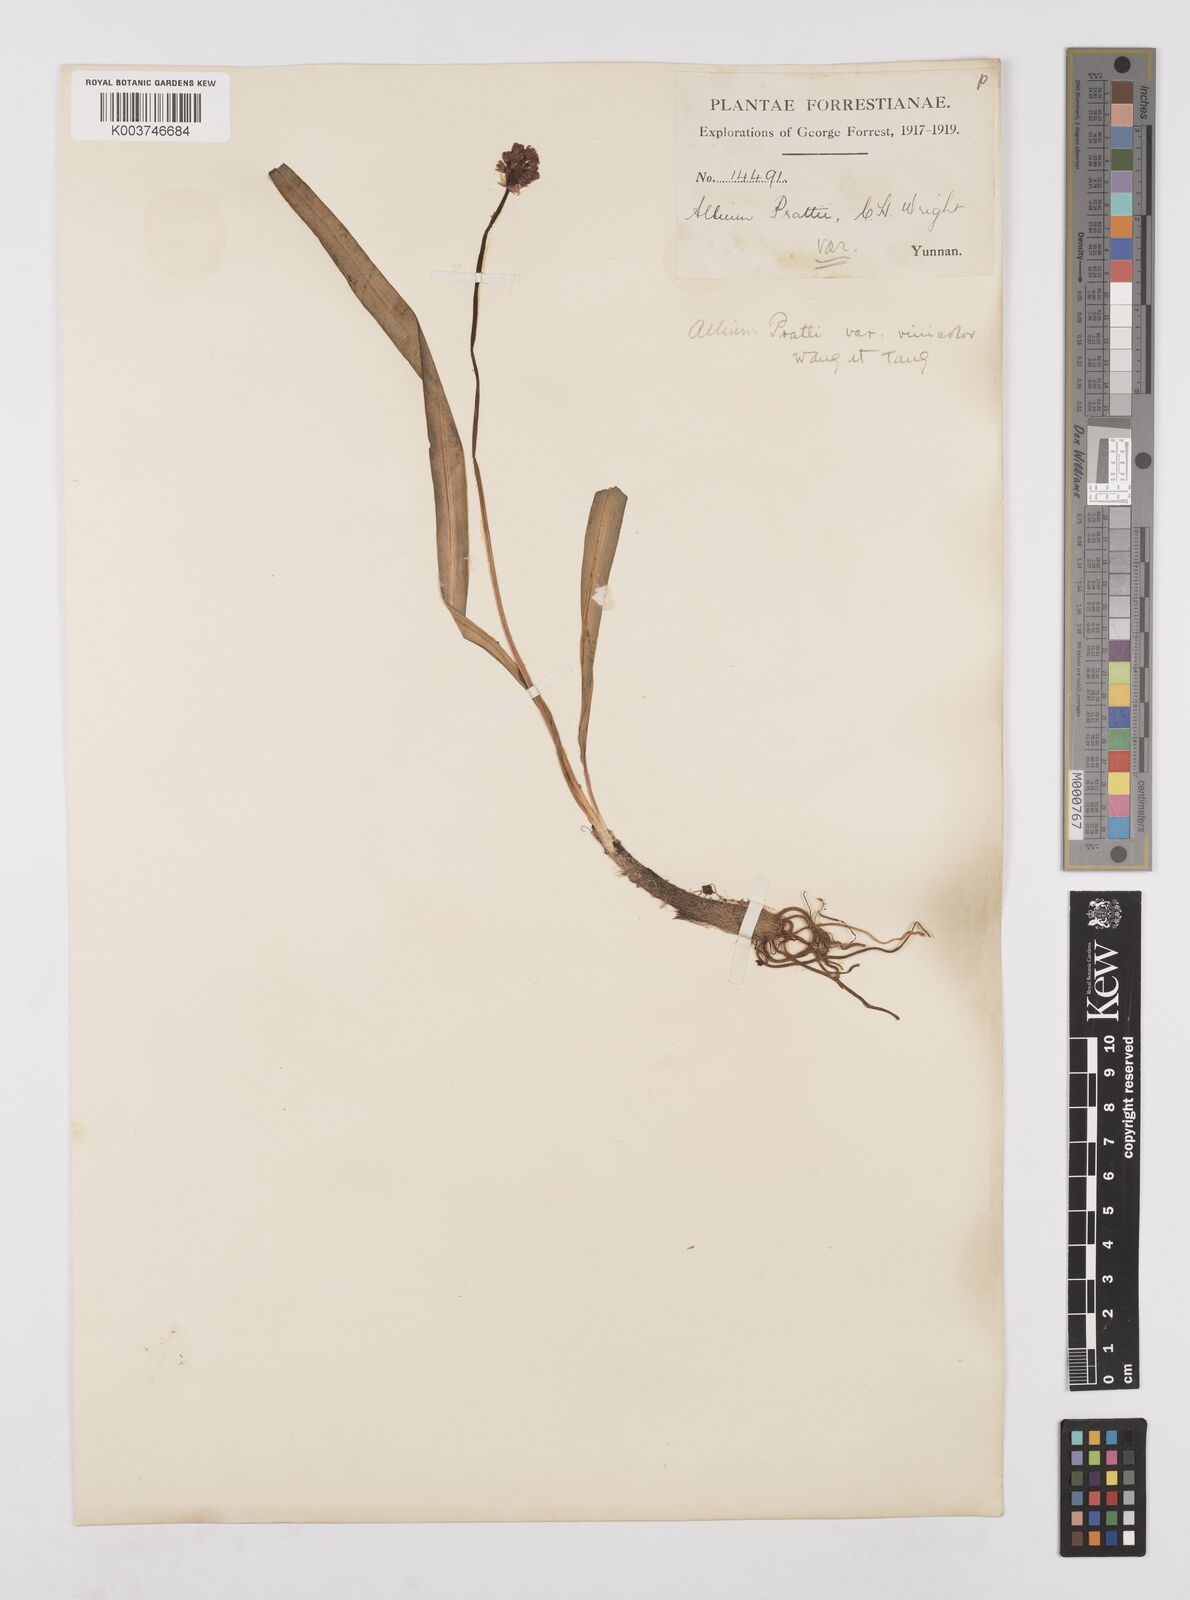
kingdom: Plantae
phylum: Tracheophyta
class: Liliopsida
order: Asparagales
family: Amaryllidaceae
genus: Allium
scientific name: Allium prattii
